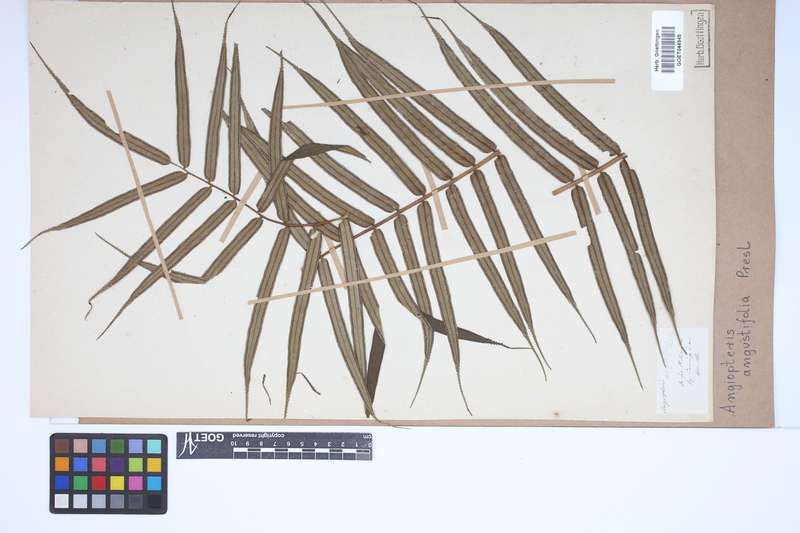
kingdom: Plantae
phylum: Tracheophyta
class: Polypodiopsida
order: Marattiales
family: Marattiaceae
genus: Angiopteris
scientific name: Angiopteris angustifolia
